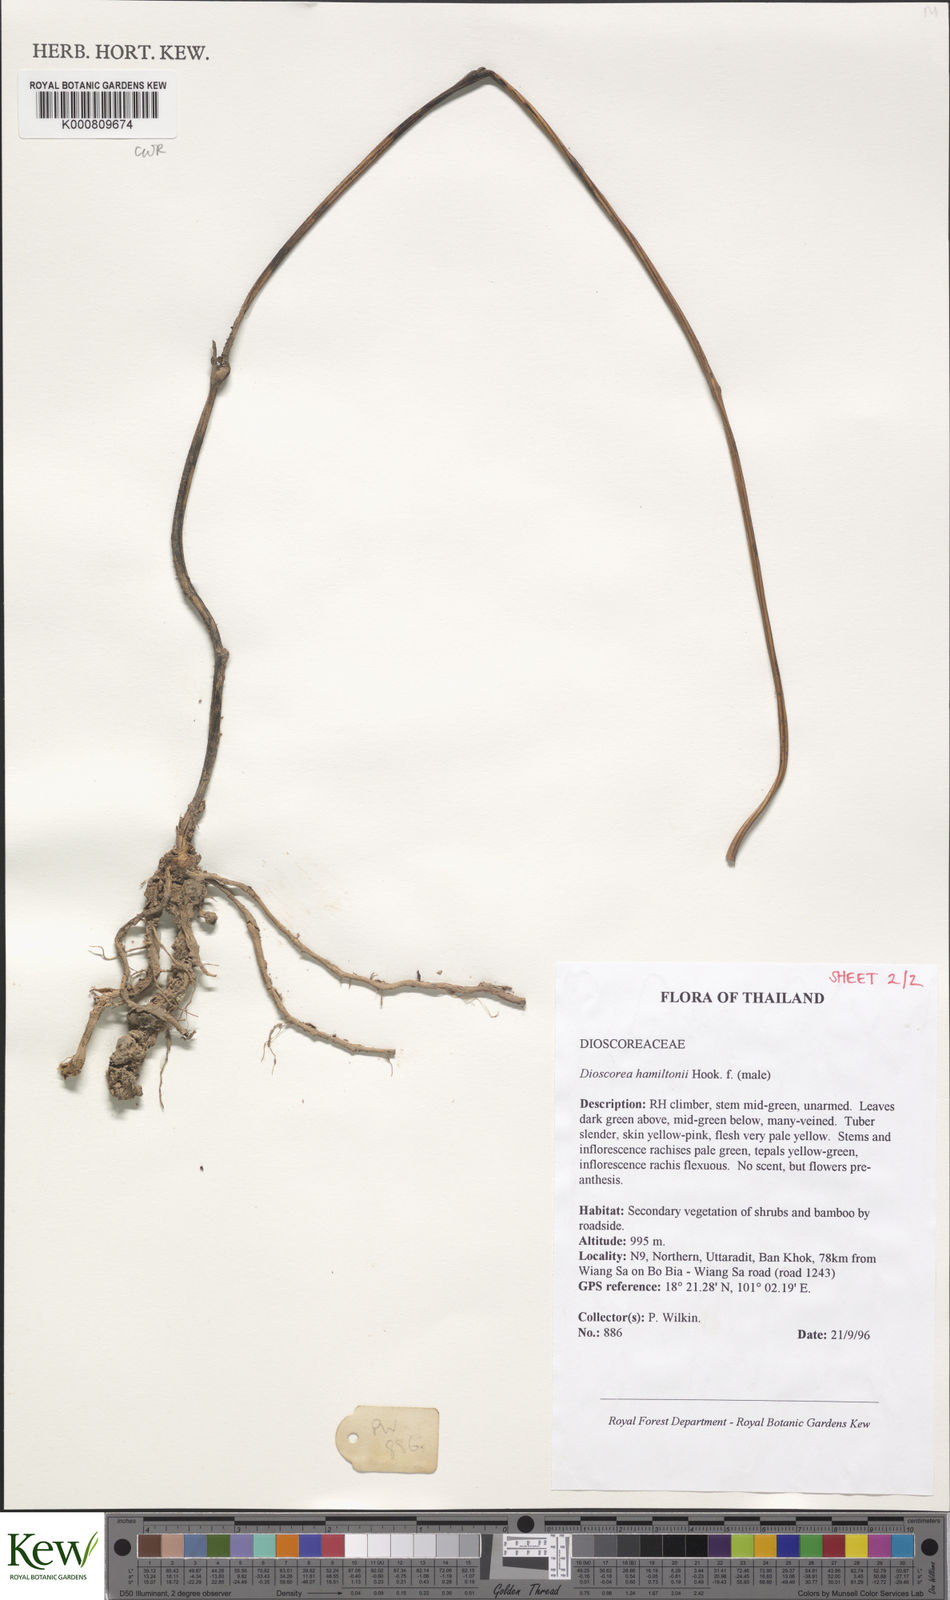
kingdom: Plantae
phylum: Tracheophyta
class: Liliopsida
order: Dioscoreales
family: Dioscoreaceae
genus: Dioscorea
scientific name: Dioscorea hamiltonii
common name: Mountain yam
